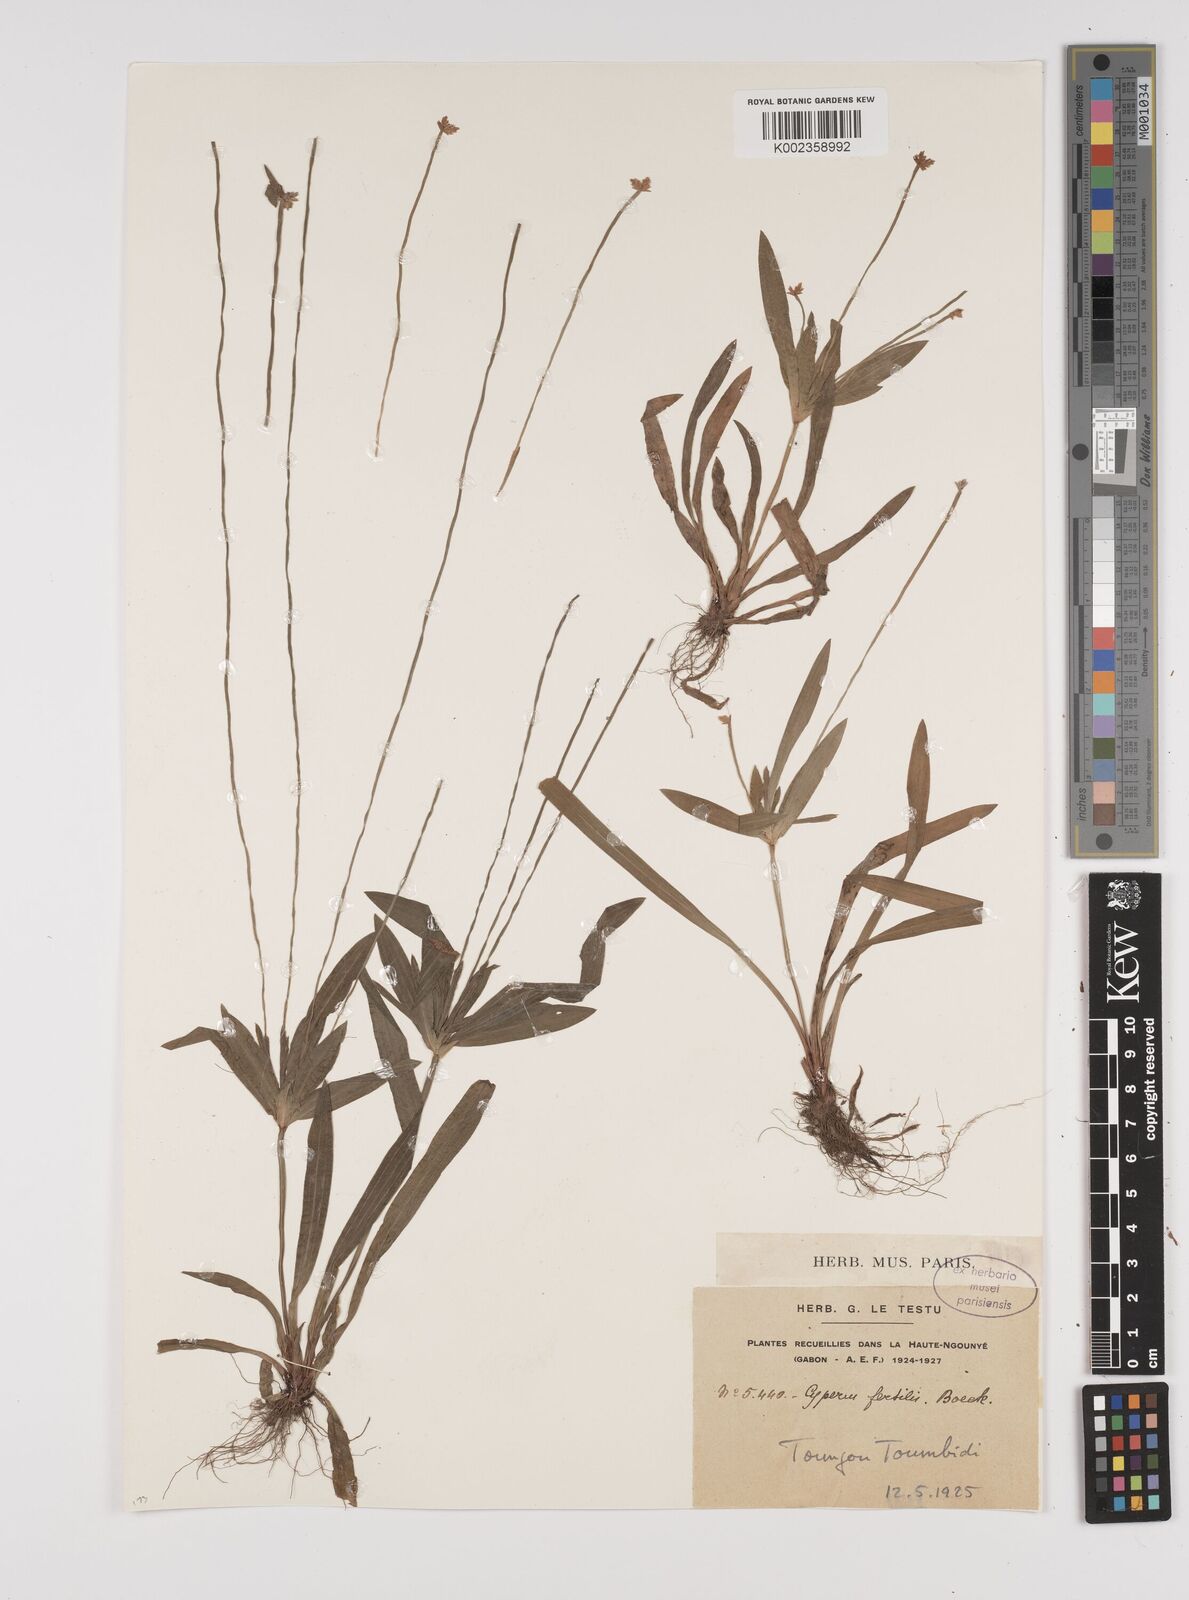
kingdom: Plantae
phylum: Tracheophyta
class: Liliopsida
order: Poales
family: Cyperaceae
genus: Cyperus
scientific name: Cyperus fertilis
